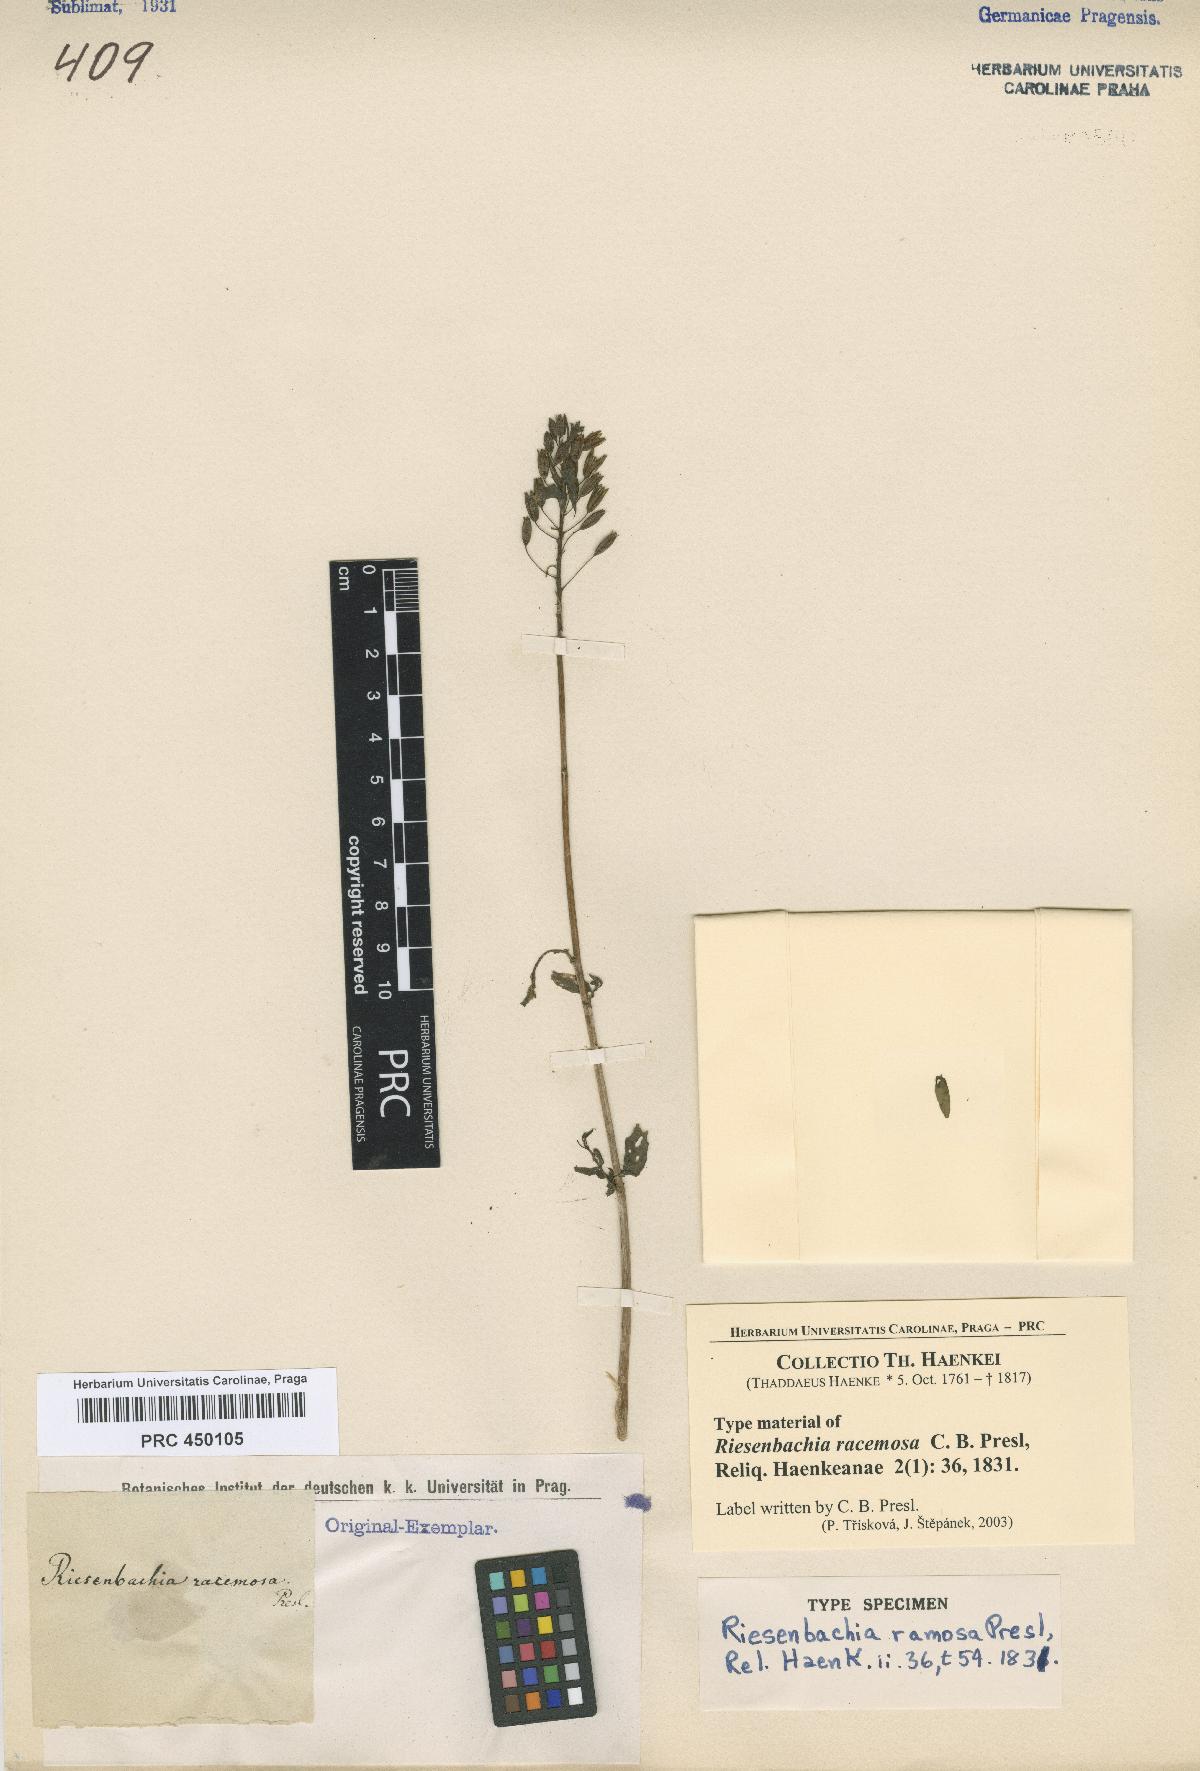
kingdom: Plantae
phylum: Tracheophyta
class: Magnoliopsida
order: Myrtales
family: Onagraceae
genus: Lopezia
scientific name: Lopezia riesenbachia
